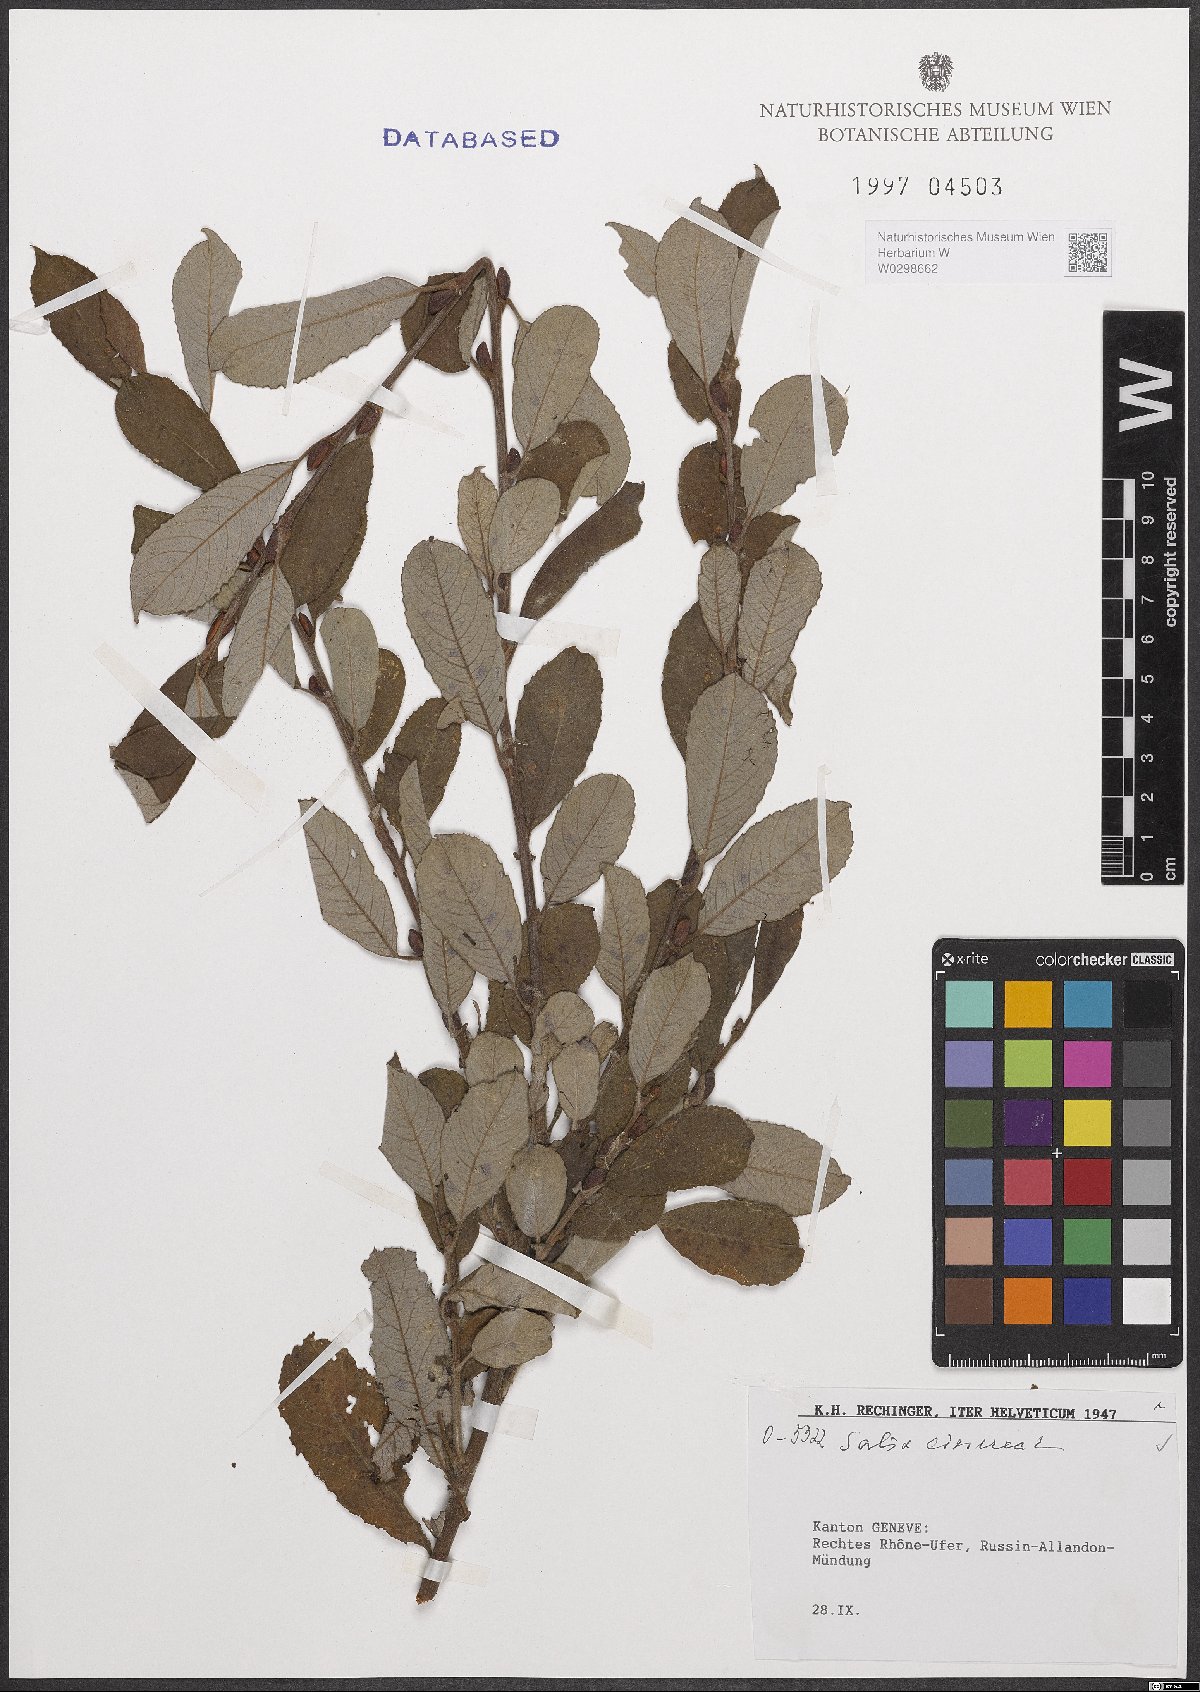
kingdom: Plantae
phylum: Tracheophyta
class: Magnoliopsida
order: Malpighiales
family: Salicaceae
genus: Salix
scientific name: Salix cinerea
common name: Common sallow
